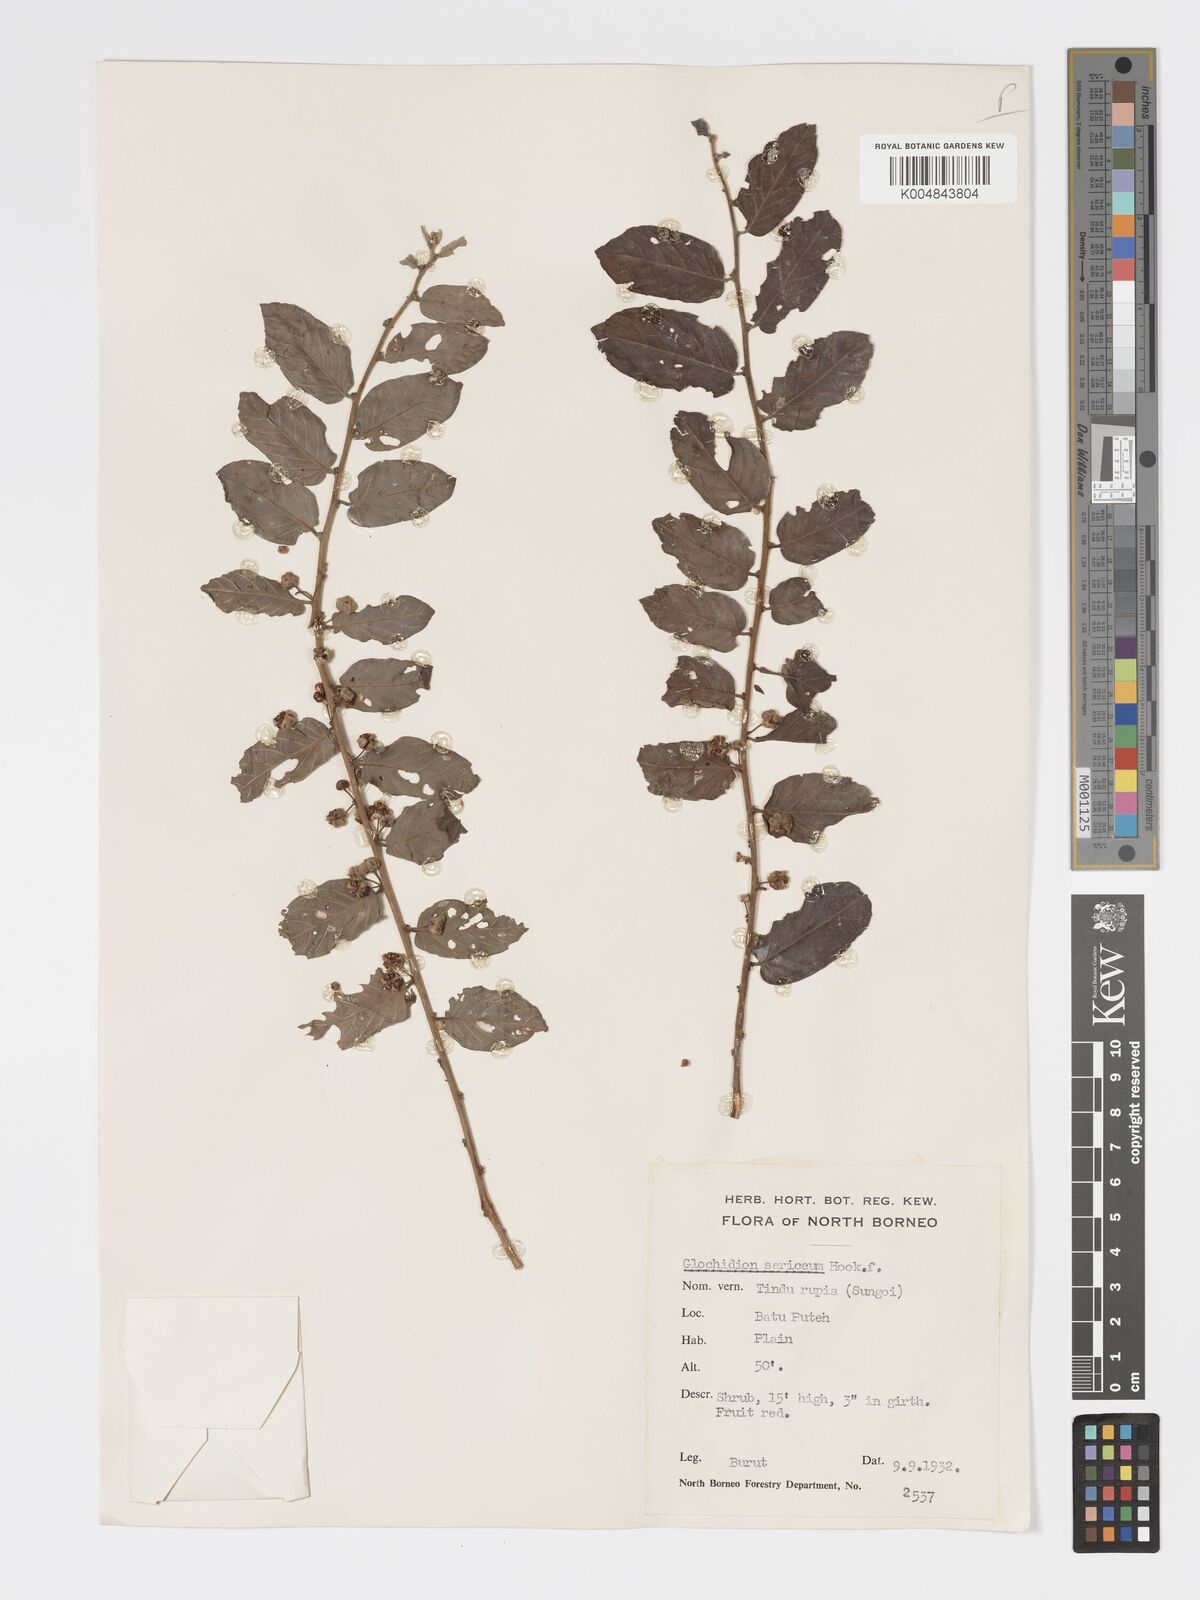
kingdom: Plantae
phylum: Tracheophyta
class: Magnoliopsida
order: Malpighiales
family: Phyllanthaceae
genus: Glochidion
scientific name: Glochidion sericeum
